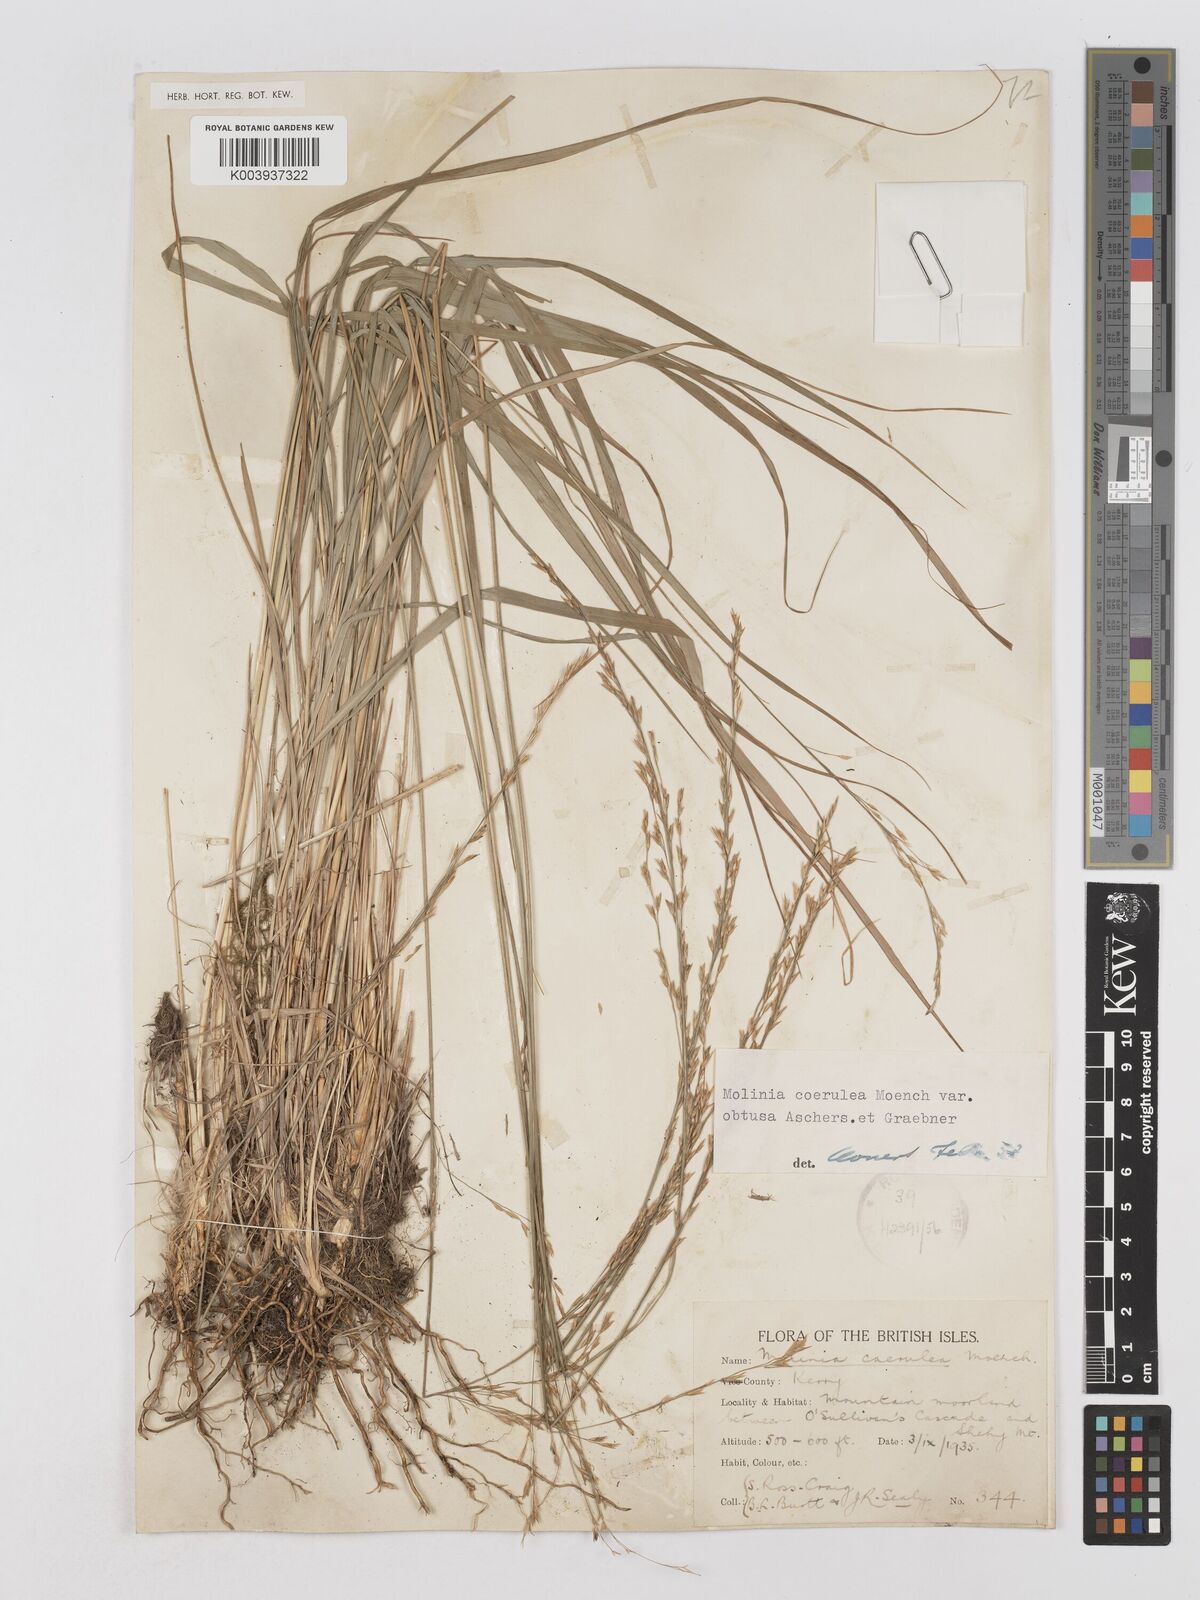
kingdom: Plantae
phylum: Tracheophyta
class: Liliopsida
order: Poales
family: Poaceae
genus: Molinia
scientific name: Molinia caerulea
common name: Purple moor-grass
